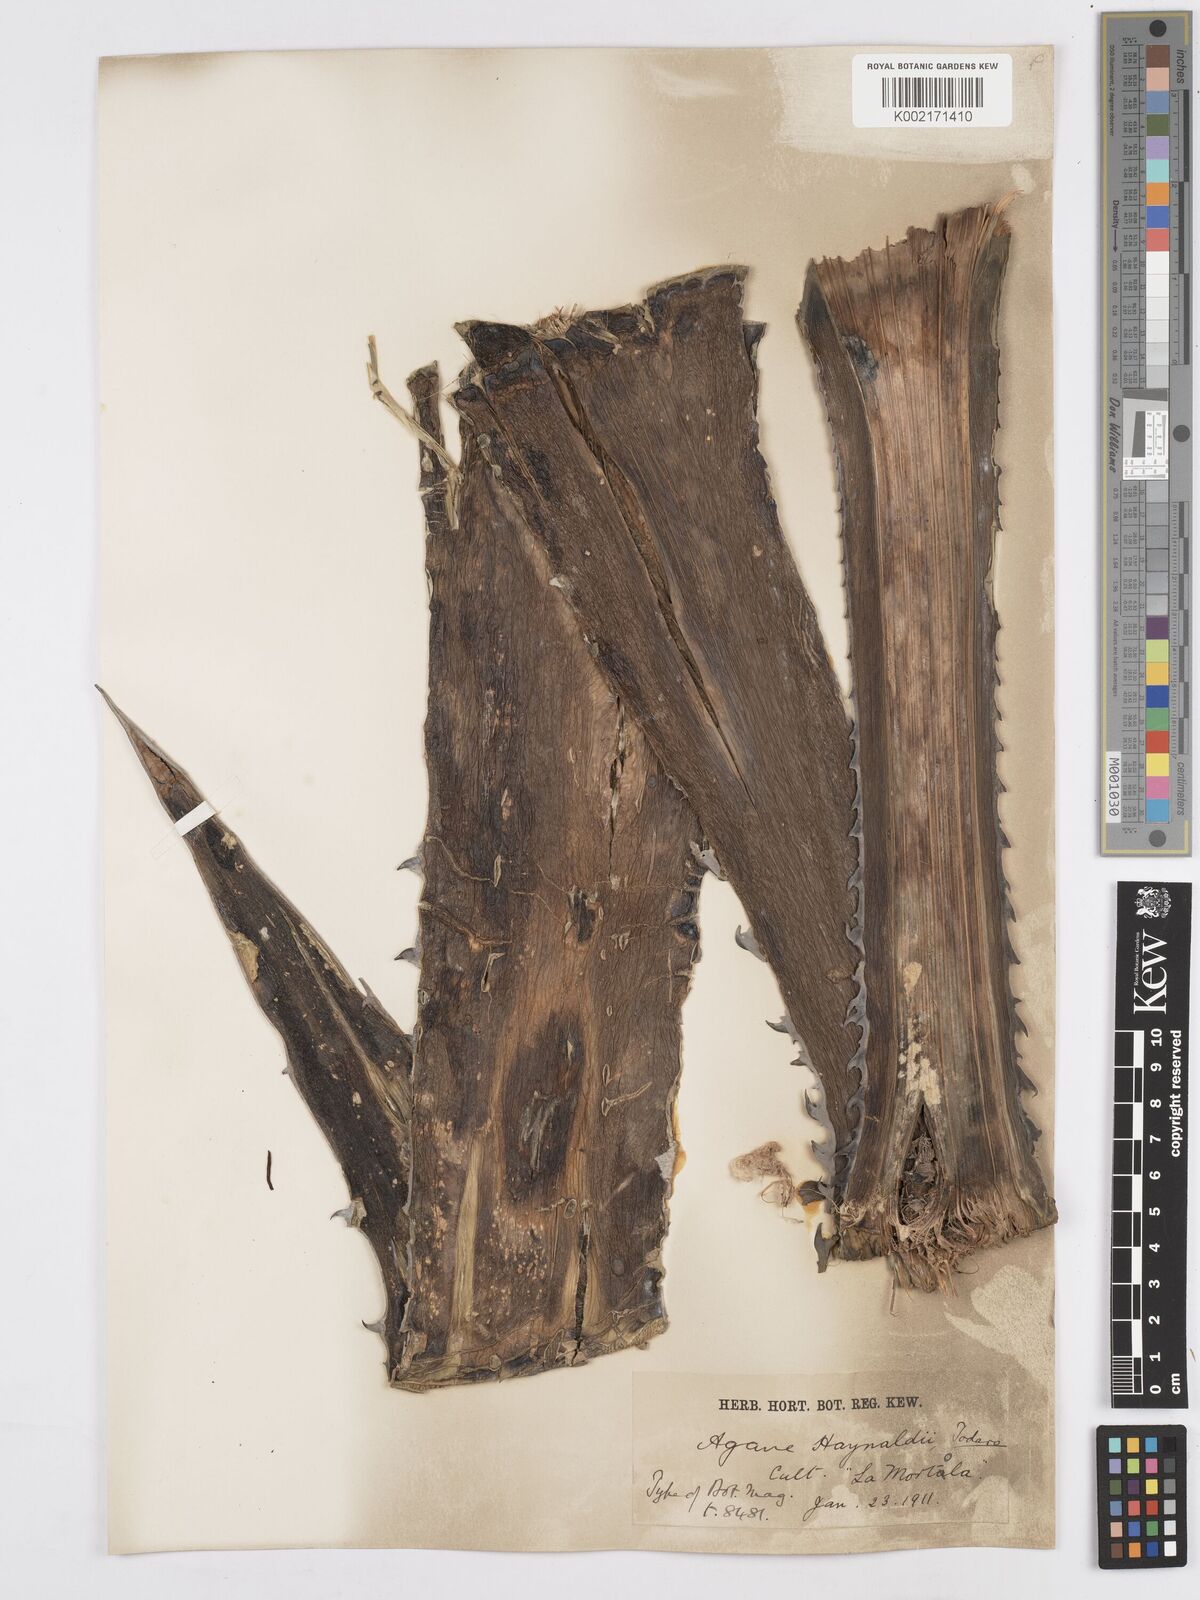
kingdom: Plantae
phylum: Tracheophyta
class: Liliopsida
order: Asparagales
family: Asparagaceae
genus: Agave
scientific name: Agave utahensis
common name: Utah agave
